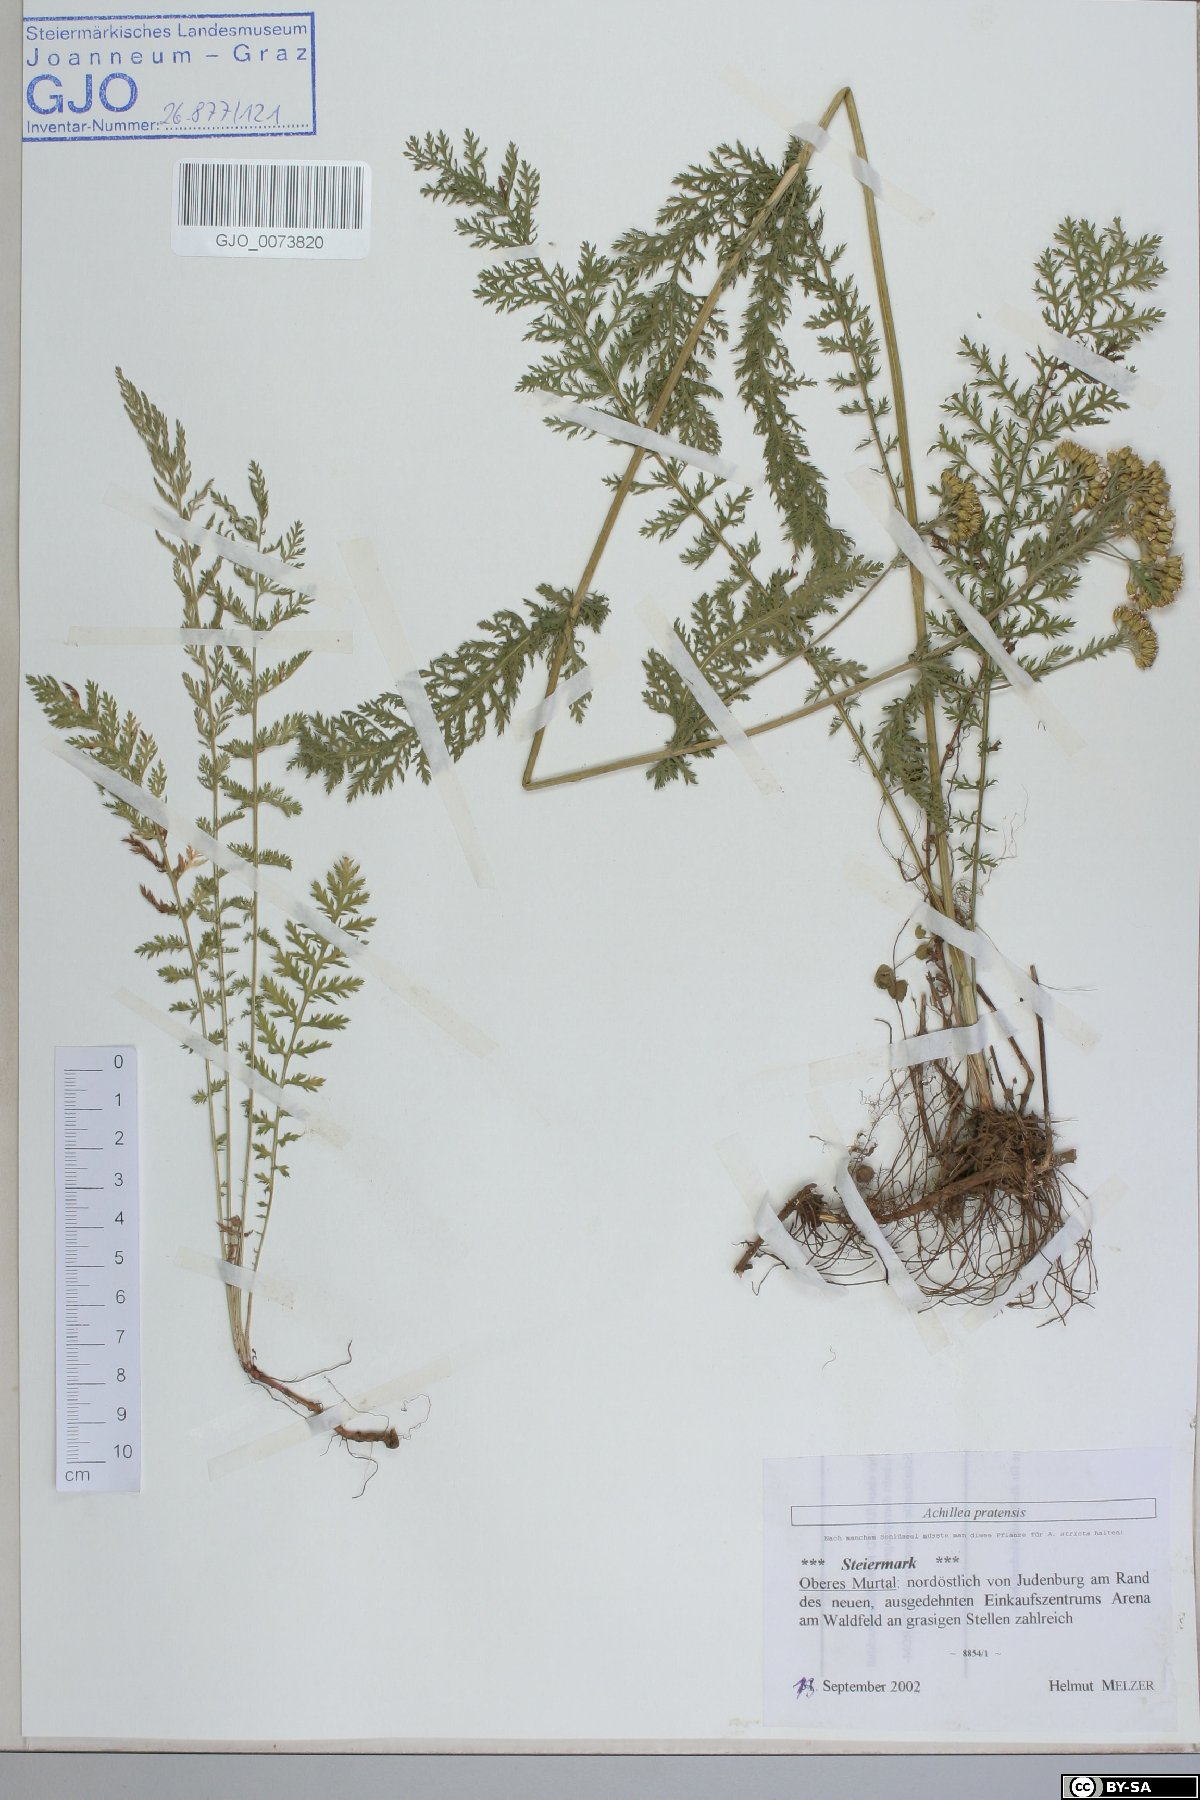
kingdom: Plantae
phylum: Tracheophyta
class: Magnoliopsida
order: Asterales
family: Asteraceae
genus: Achillea
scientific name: Achillea pratensis
